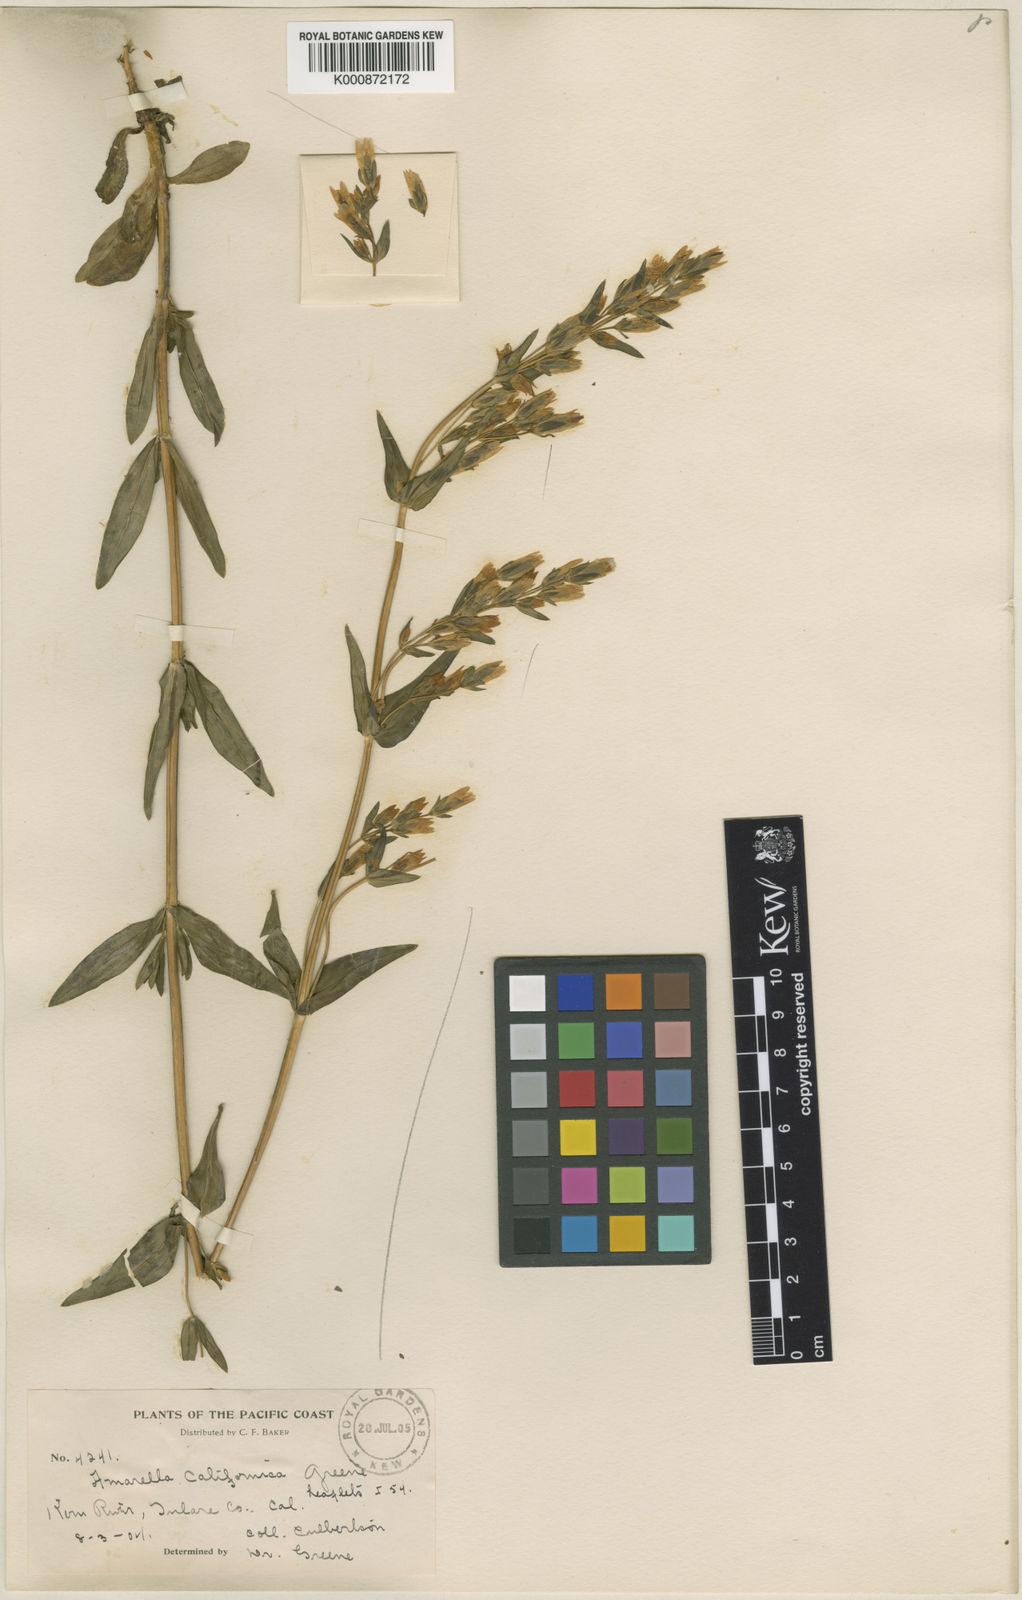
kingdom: Plantae
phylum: Tracheophyta
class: Magnoliopsida
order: Gentianales
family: Gentianaceae
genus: Gentianella
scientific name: Gentianella amarella
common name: Autumn gentian
